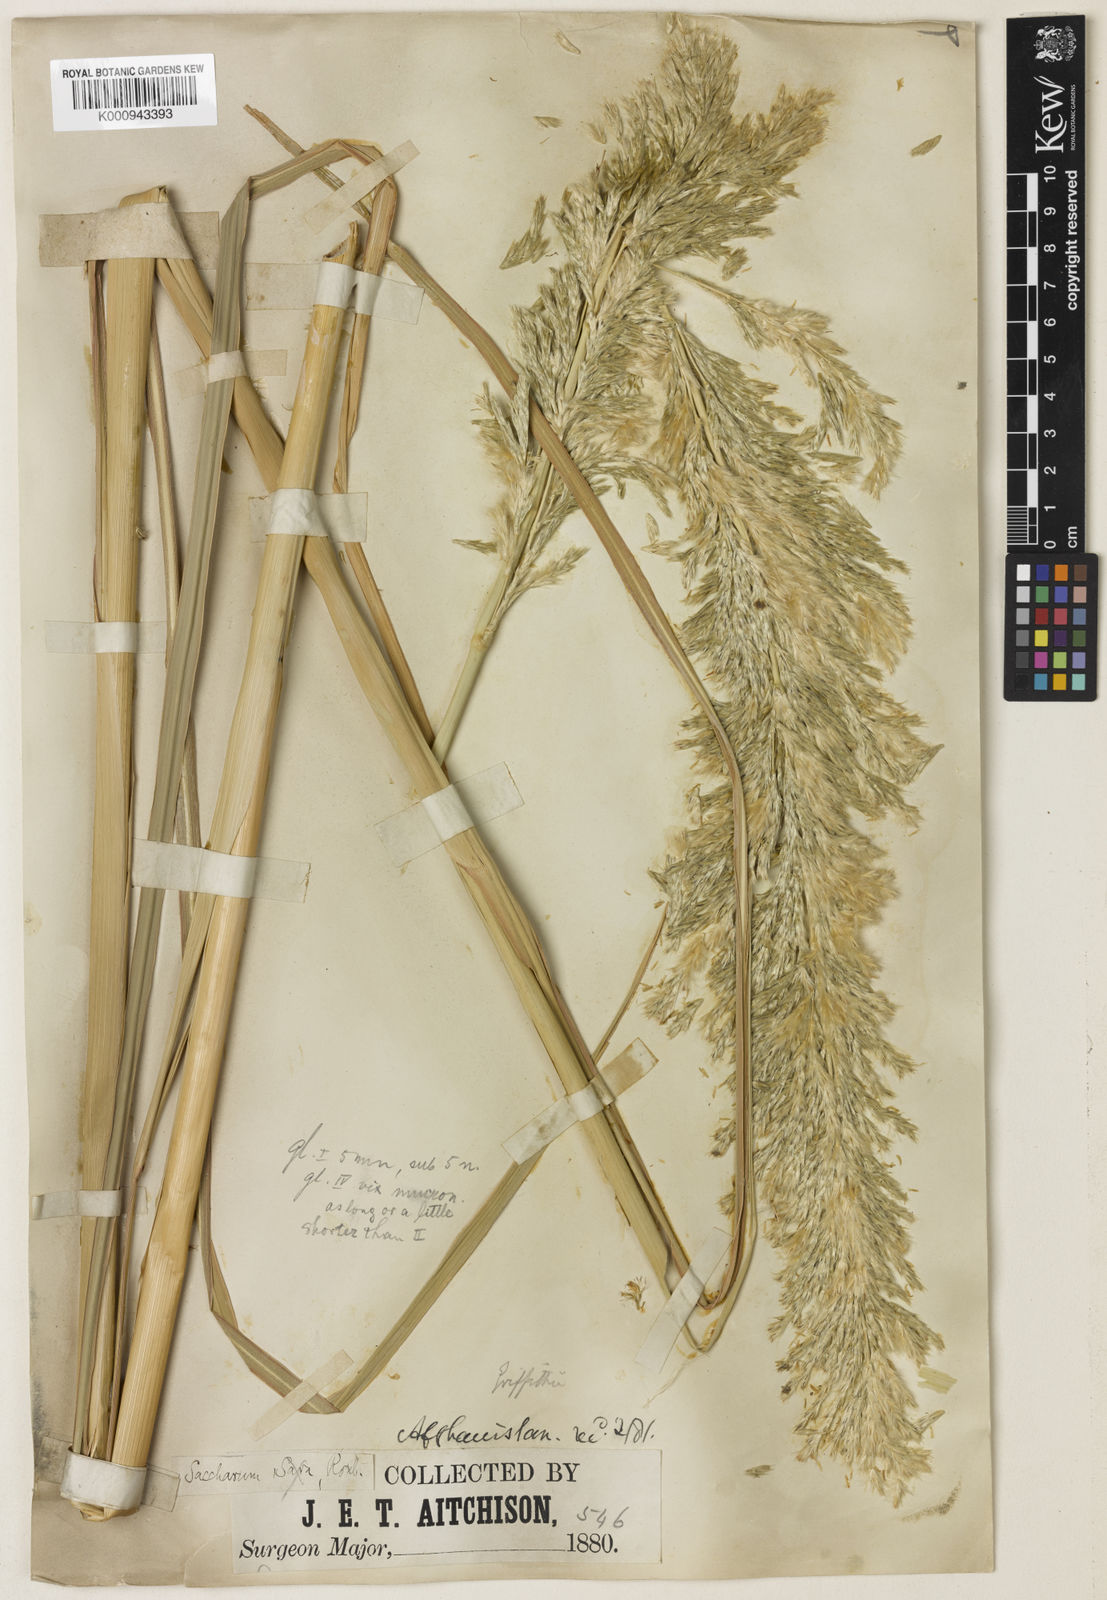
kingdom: Plantae
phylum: Tracheophyta
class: Liliopsida
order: Poales
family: Poaceae
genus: Saccharum
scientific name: Saccharum griffithii
